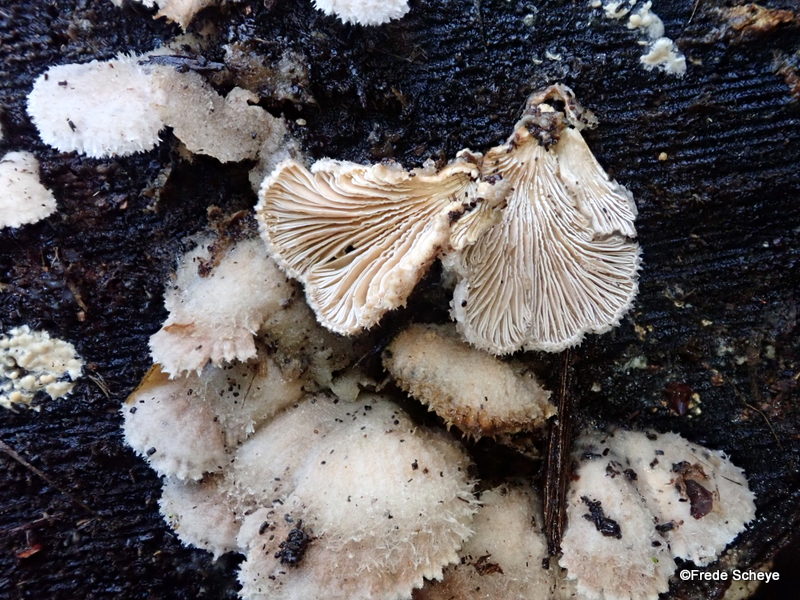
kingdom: Fungi
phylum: Basidiomycota
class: Agaricomycetes
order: Agaricales
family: Schizophyllaceae
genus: Schizophyllum
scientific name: Schizophyllum commune
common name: kløvblad
